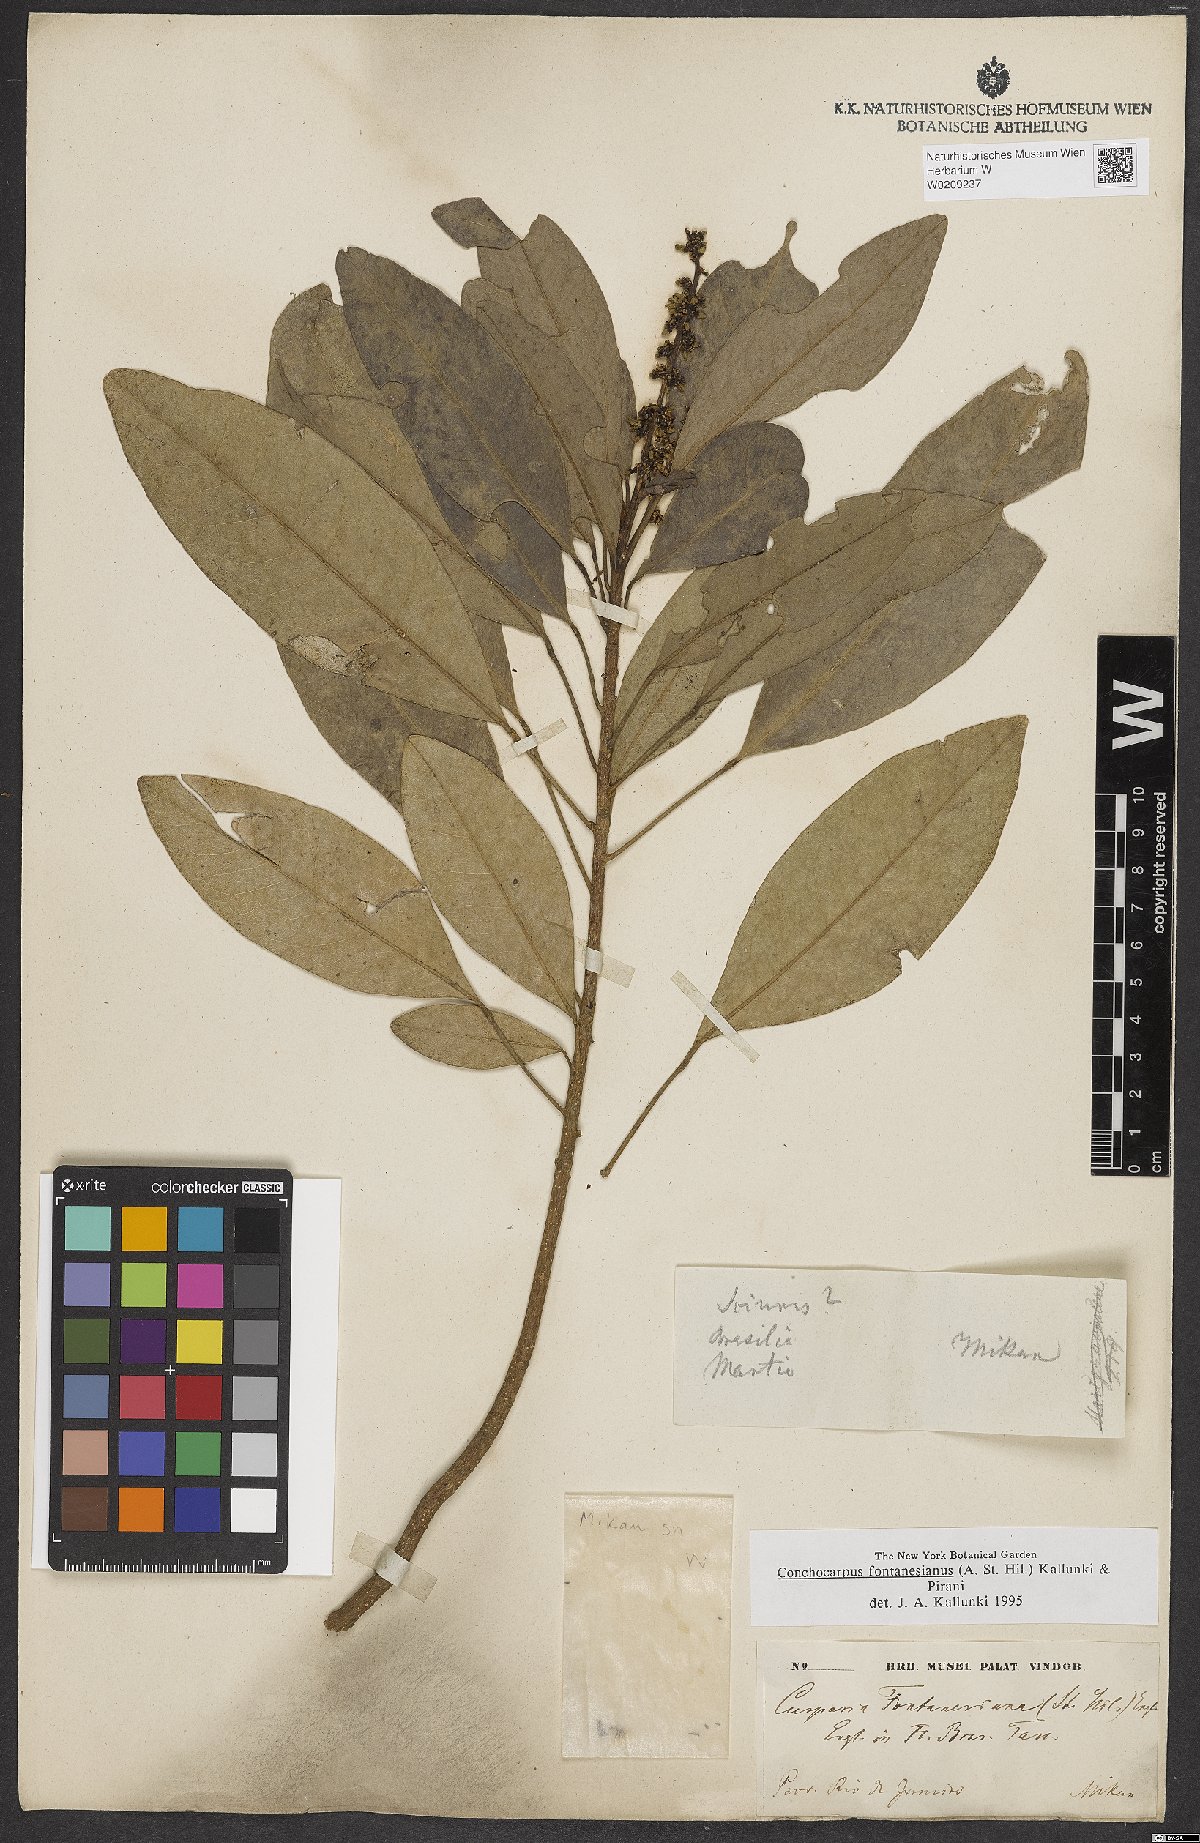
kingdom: Plantae
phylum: Tracheophyta
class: Magnoliopsida
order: Sapindales
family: Rutaceae
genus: Conchocarpus
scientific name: Conchocarpus fontanesianus
